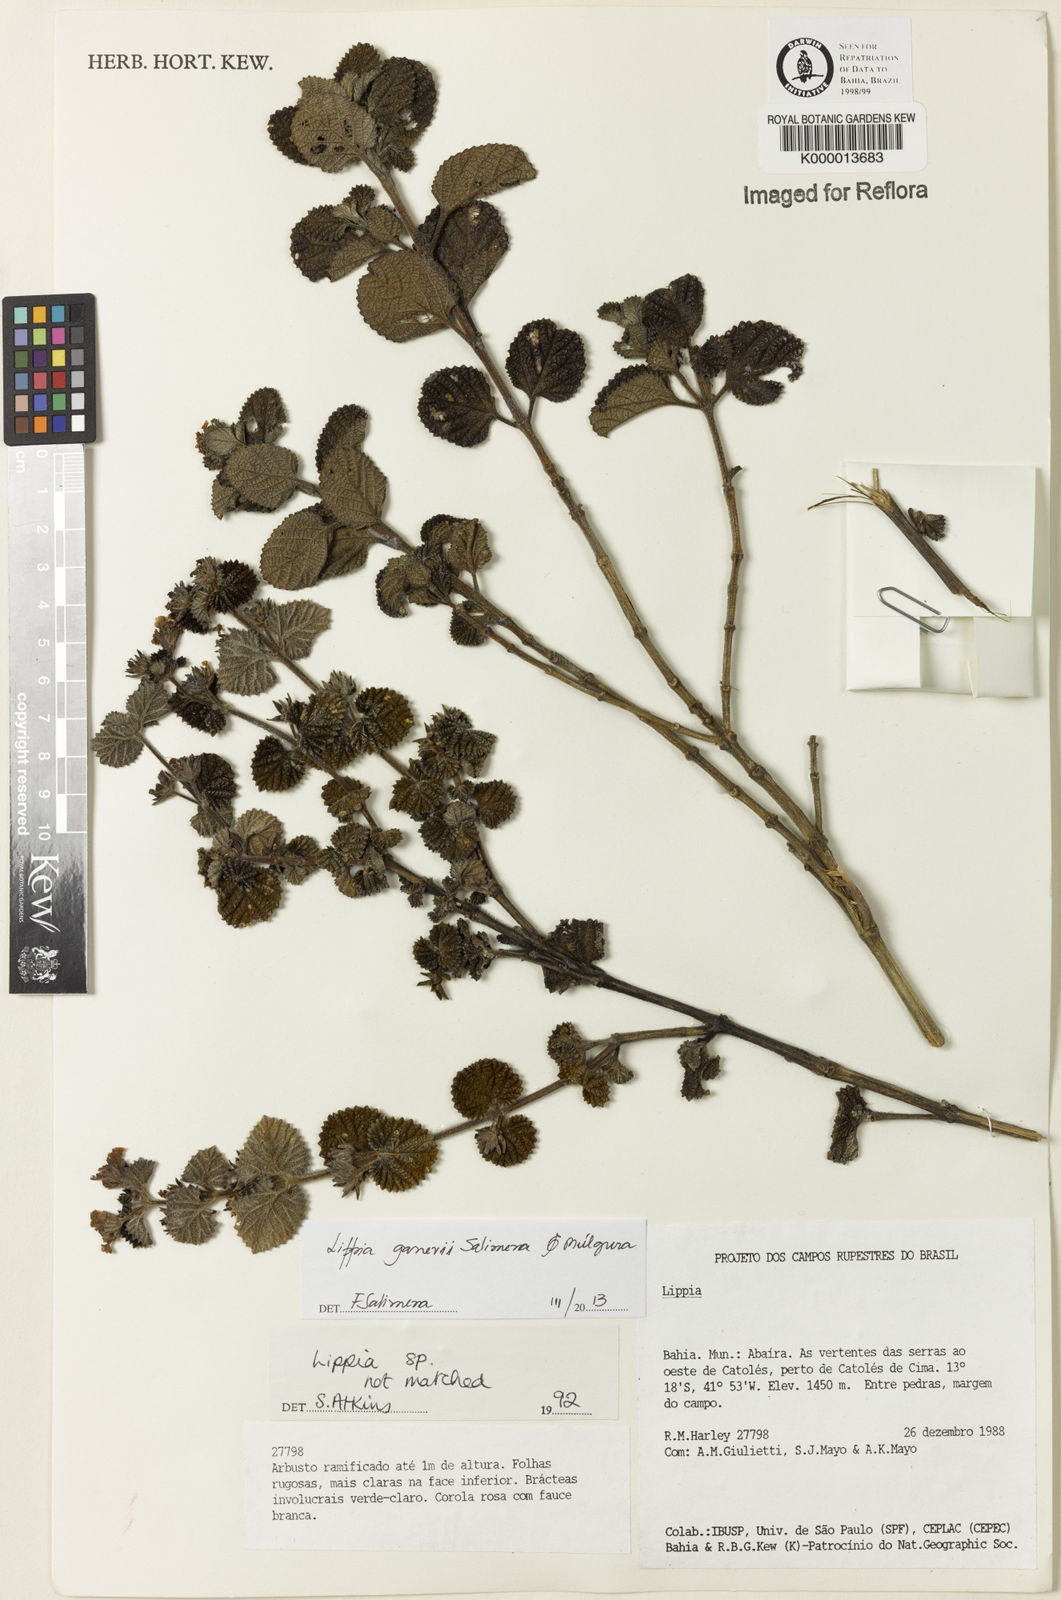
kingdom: Plantae
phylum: Tracheophyta
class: Magnoliopsida
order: Lamiales
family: Verbenaceae
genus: Lippia
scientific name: Lippia
